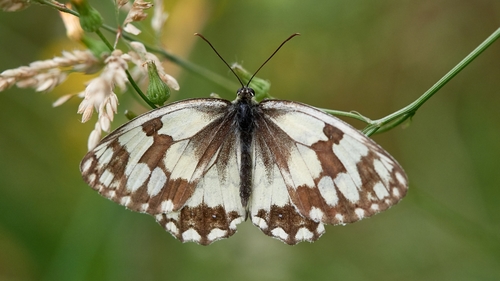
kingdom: Animalia
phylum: Arthropoda
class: Insecta
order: Lepidoptera
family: Nymphalidae
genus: Melanargia
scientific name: Melanargia lachesis
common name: Iberian marbled white
